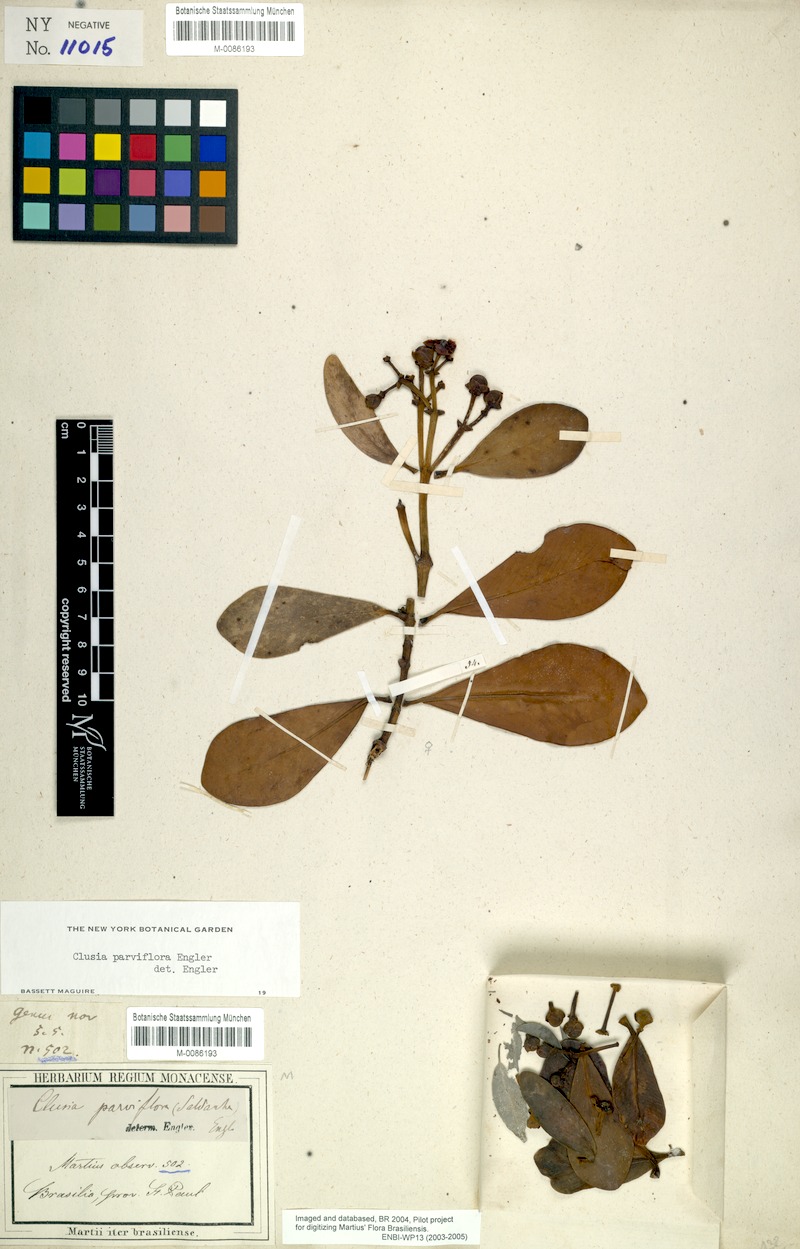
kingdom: Plantae
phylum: Tracheophyta
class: Magnoliopsida
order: Malpighiales
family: Clusiaceae
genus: Clusia
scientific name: Clusia criuva
